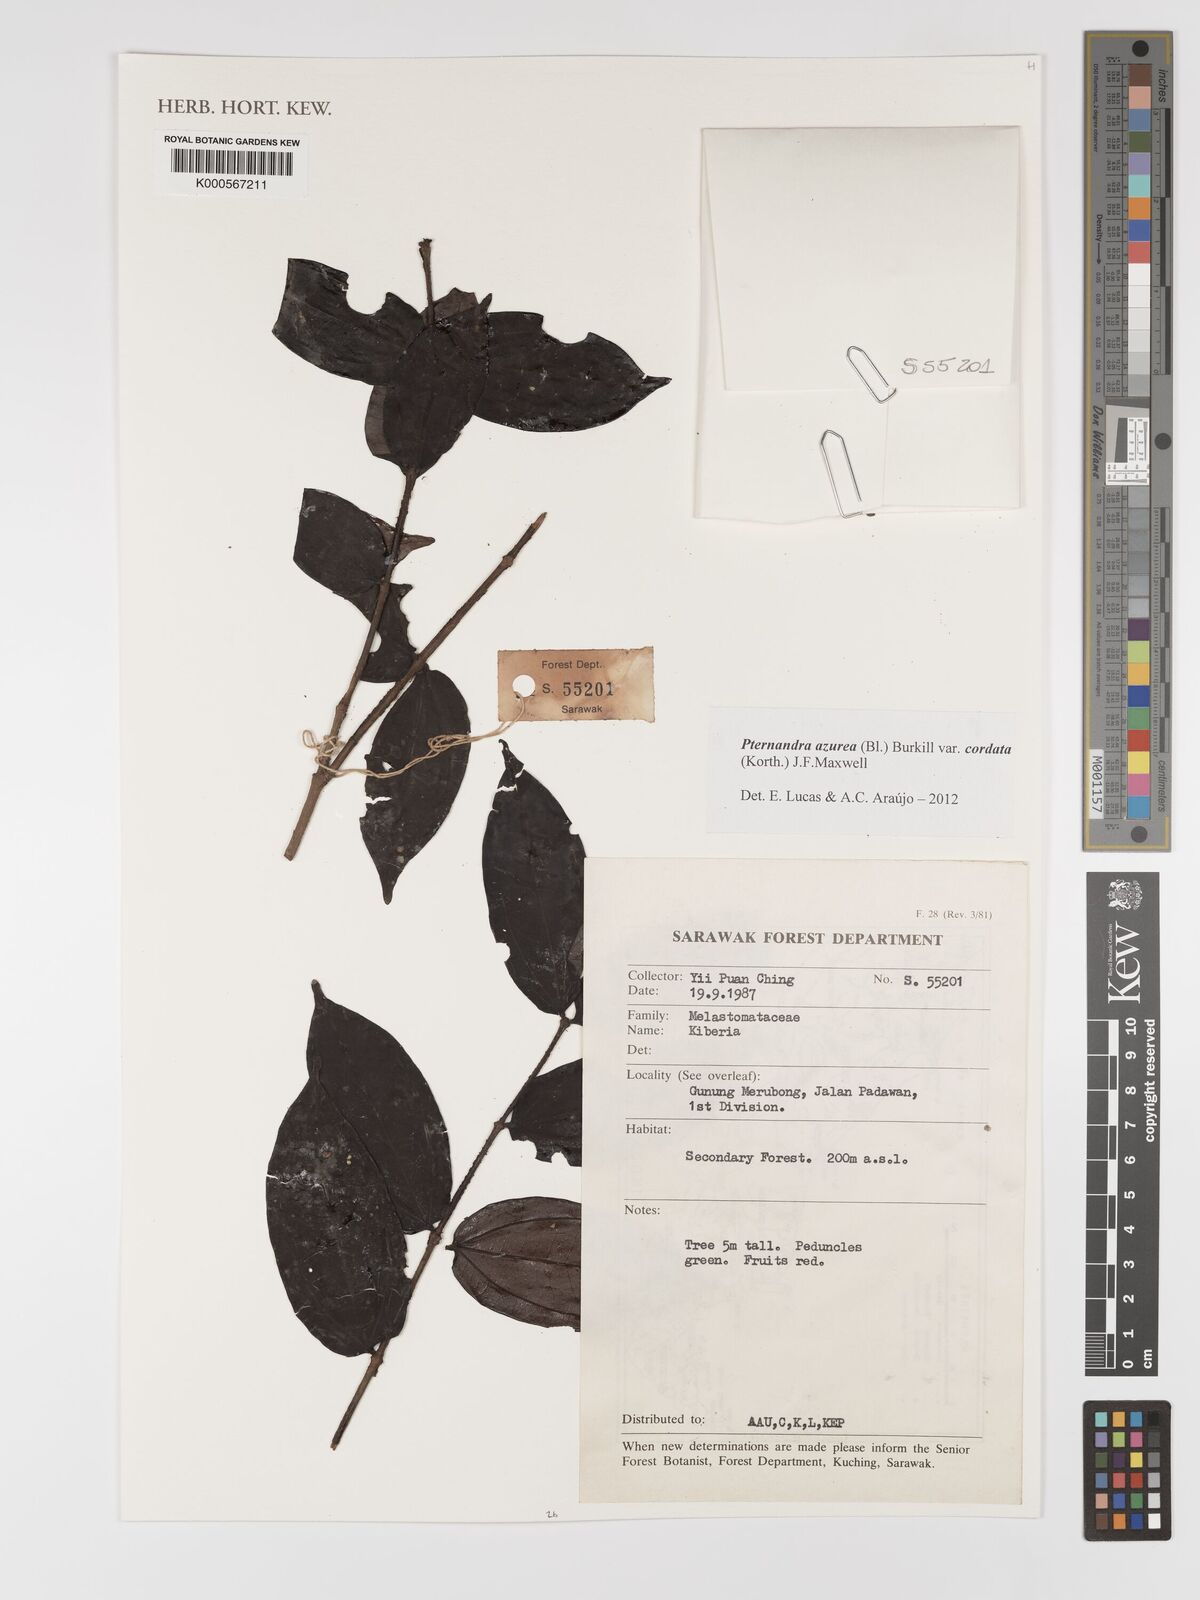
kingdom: Plantae
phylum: Tracheophyta
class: Magnoliopsida
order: Myrtales
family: Melastomataceae
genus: Pternandra
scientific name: Pternandra azurea
